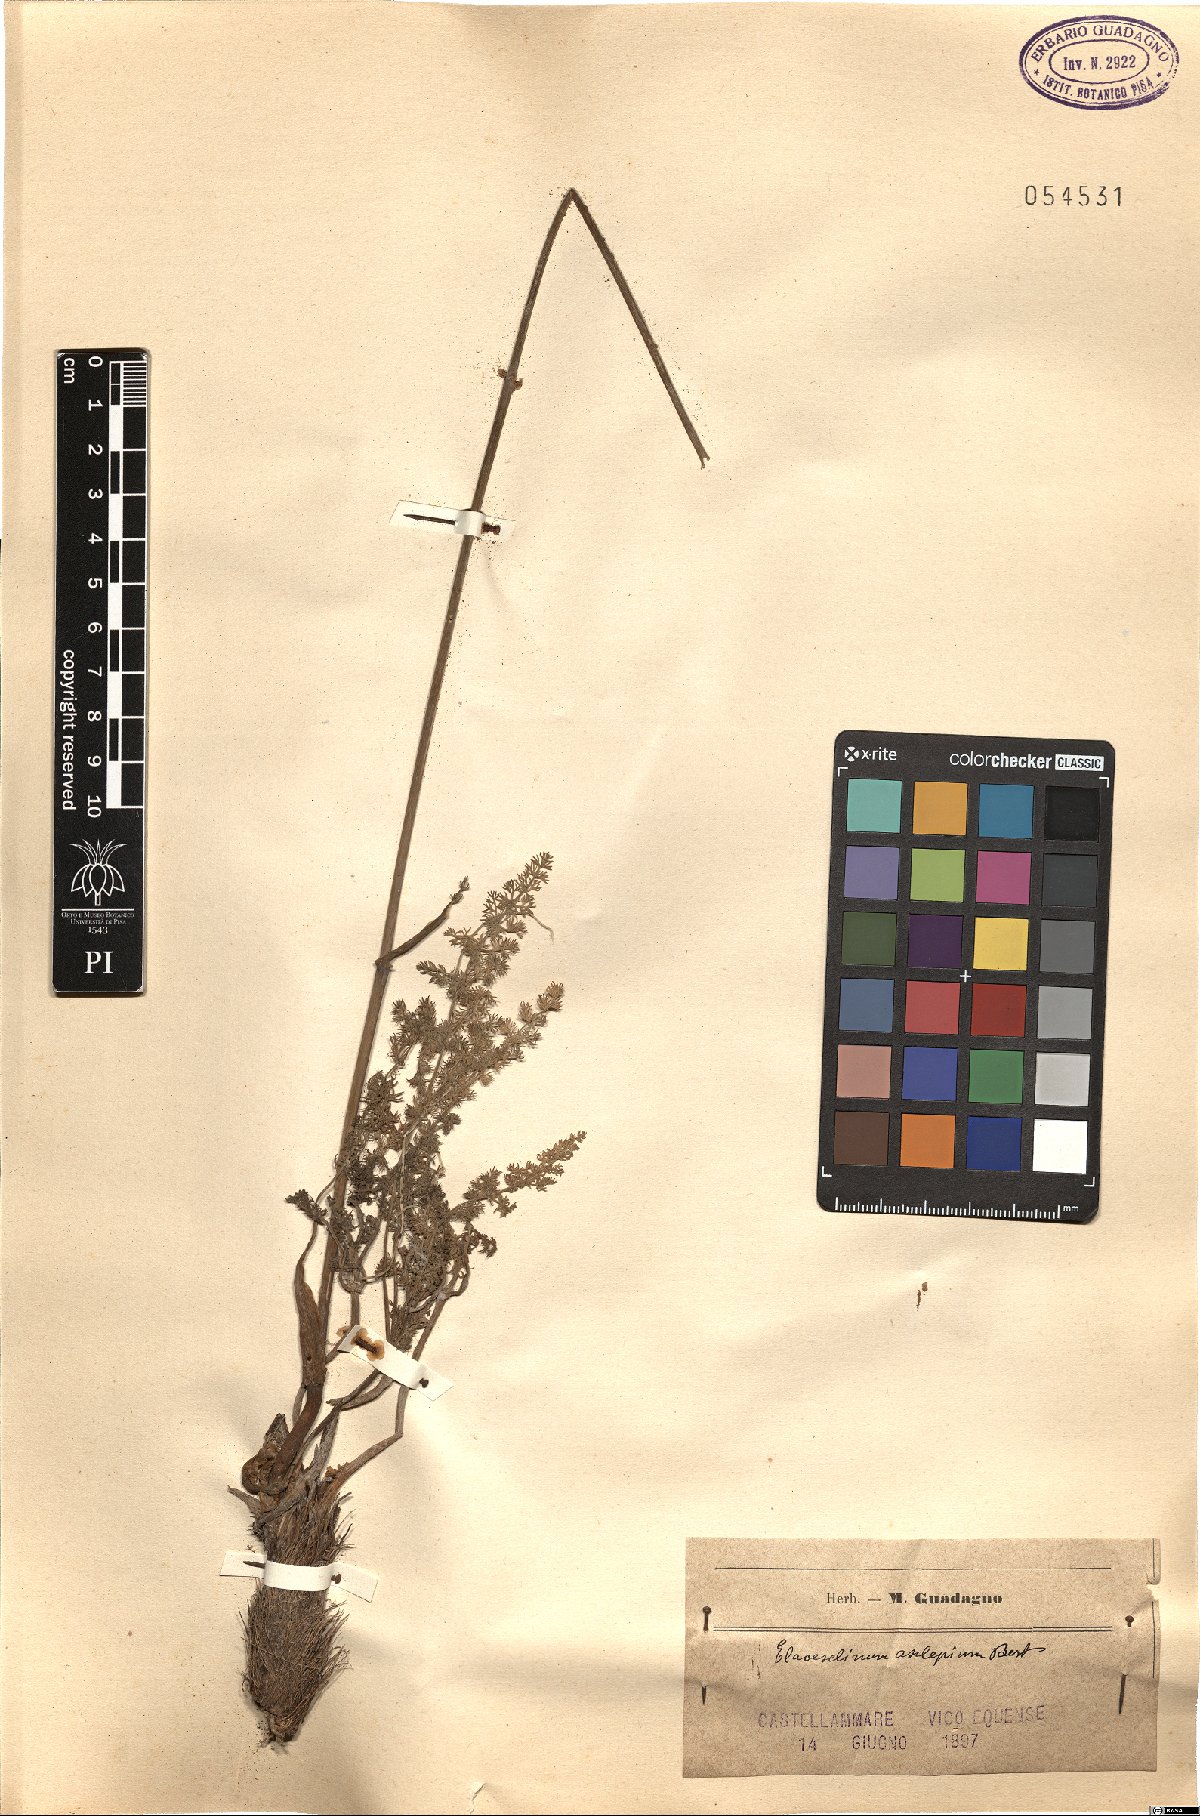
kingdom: Plantae
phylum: Tracheophyta
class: Magnoliopsida
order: Apiales
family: Apiaceae
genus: Thapsia
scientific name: Thapsia asclepium
